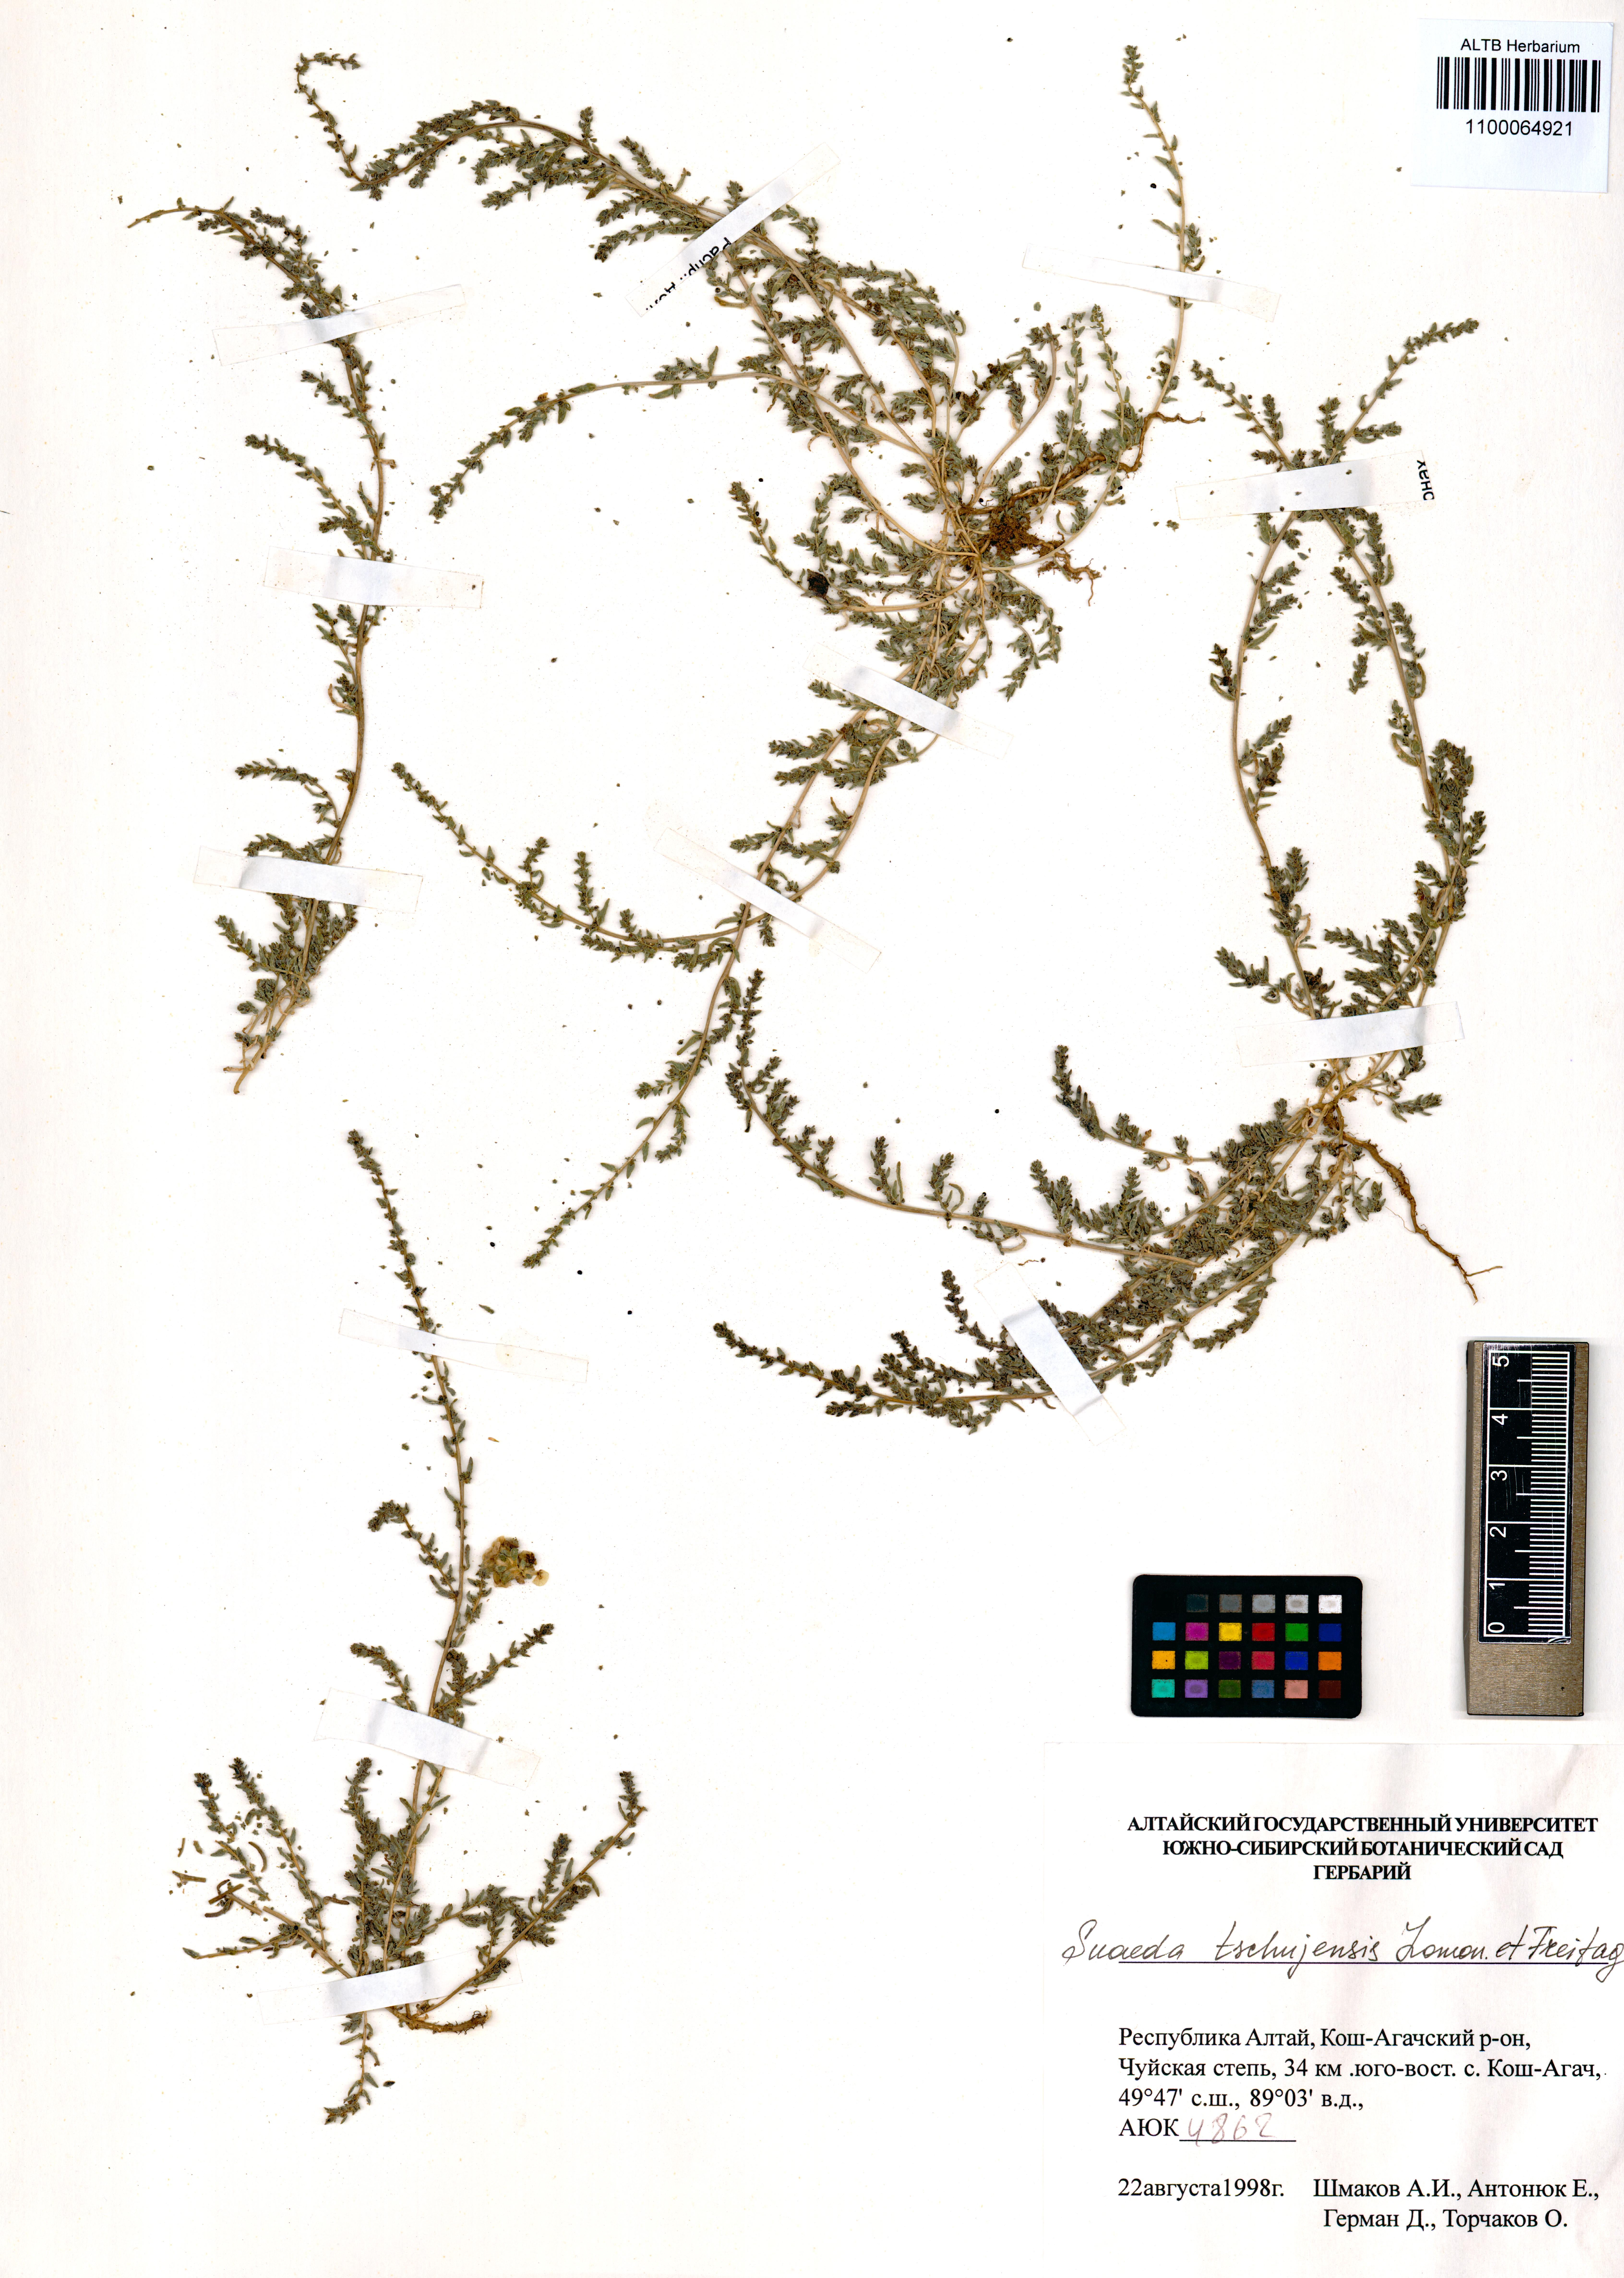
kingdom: Plantae
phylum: Tracheophyta
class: Magnoliopsida
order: Caryophyllales
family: Amaranthaceae
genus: Suaeda
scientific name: Suaeda tschujensis
